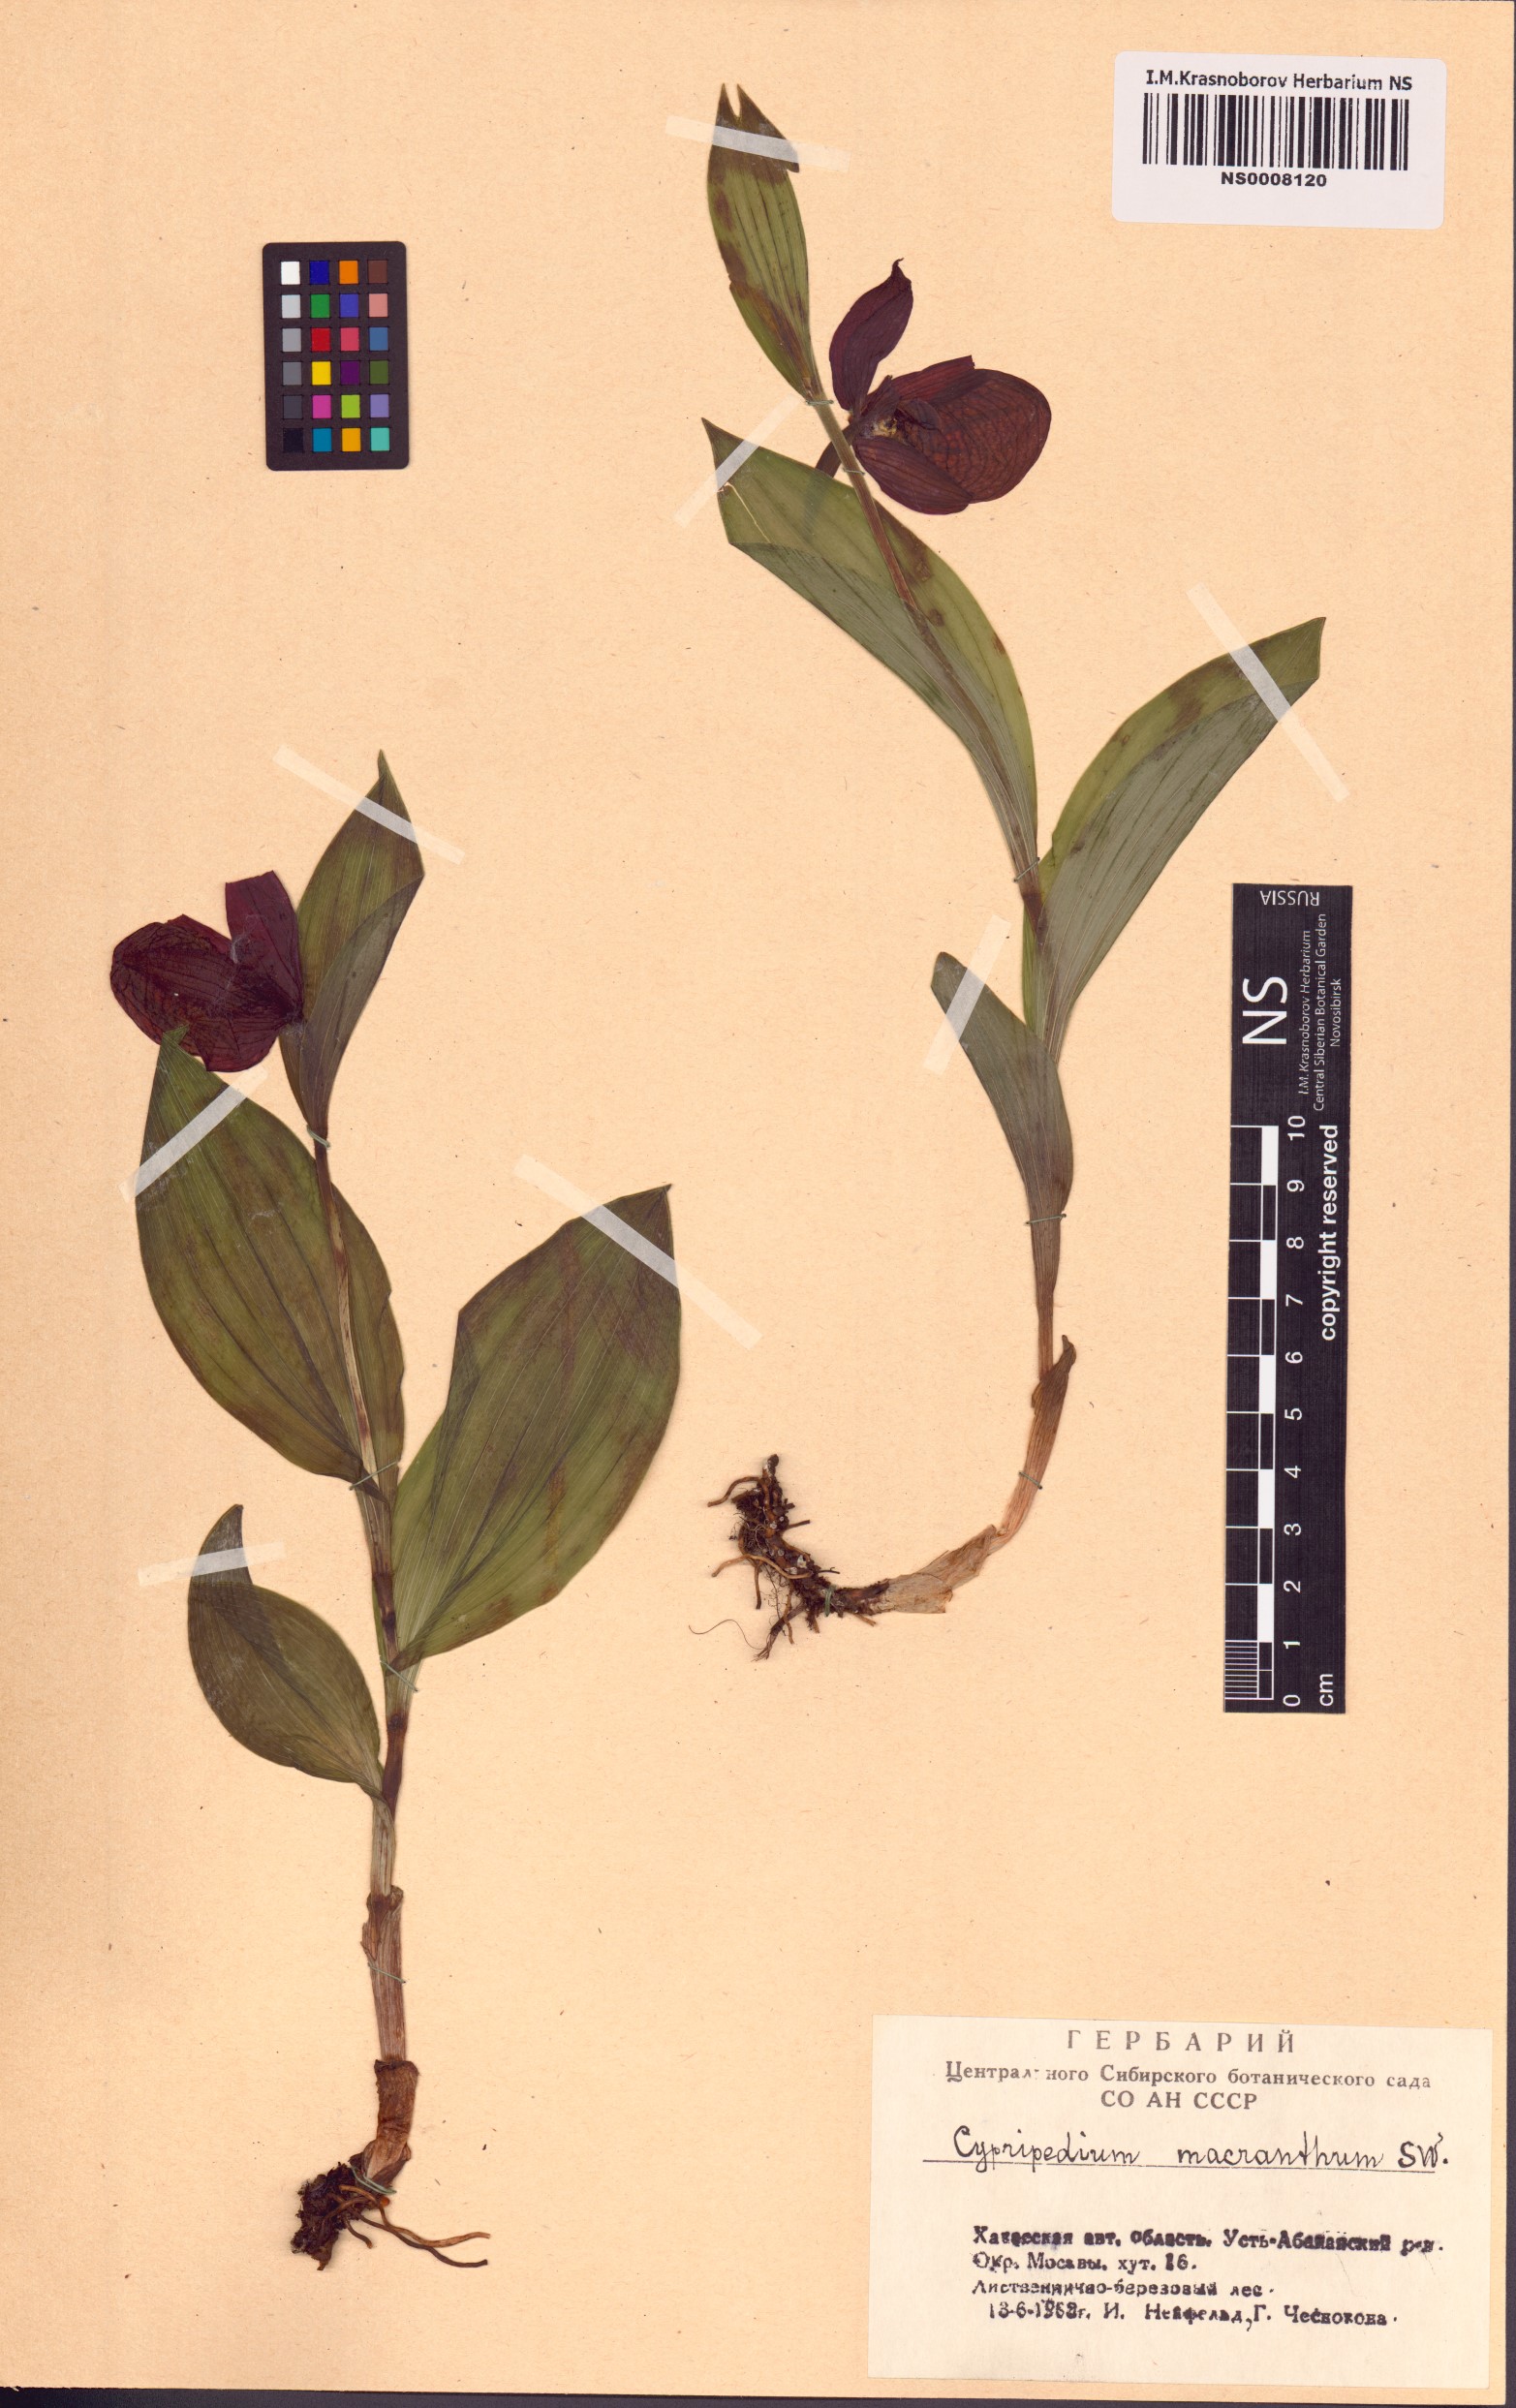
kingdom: Plantae
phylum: Tracheophyta
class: Liliopsida
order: Asparagales
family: Orchidaceae
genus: Cypripedium
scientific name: Cypripedium macranthos
